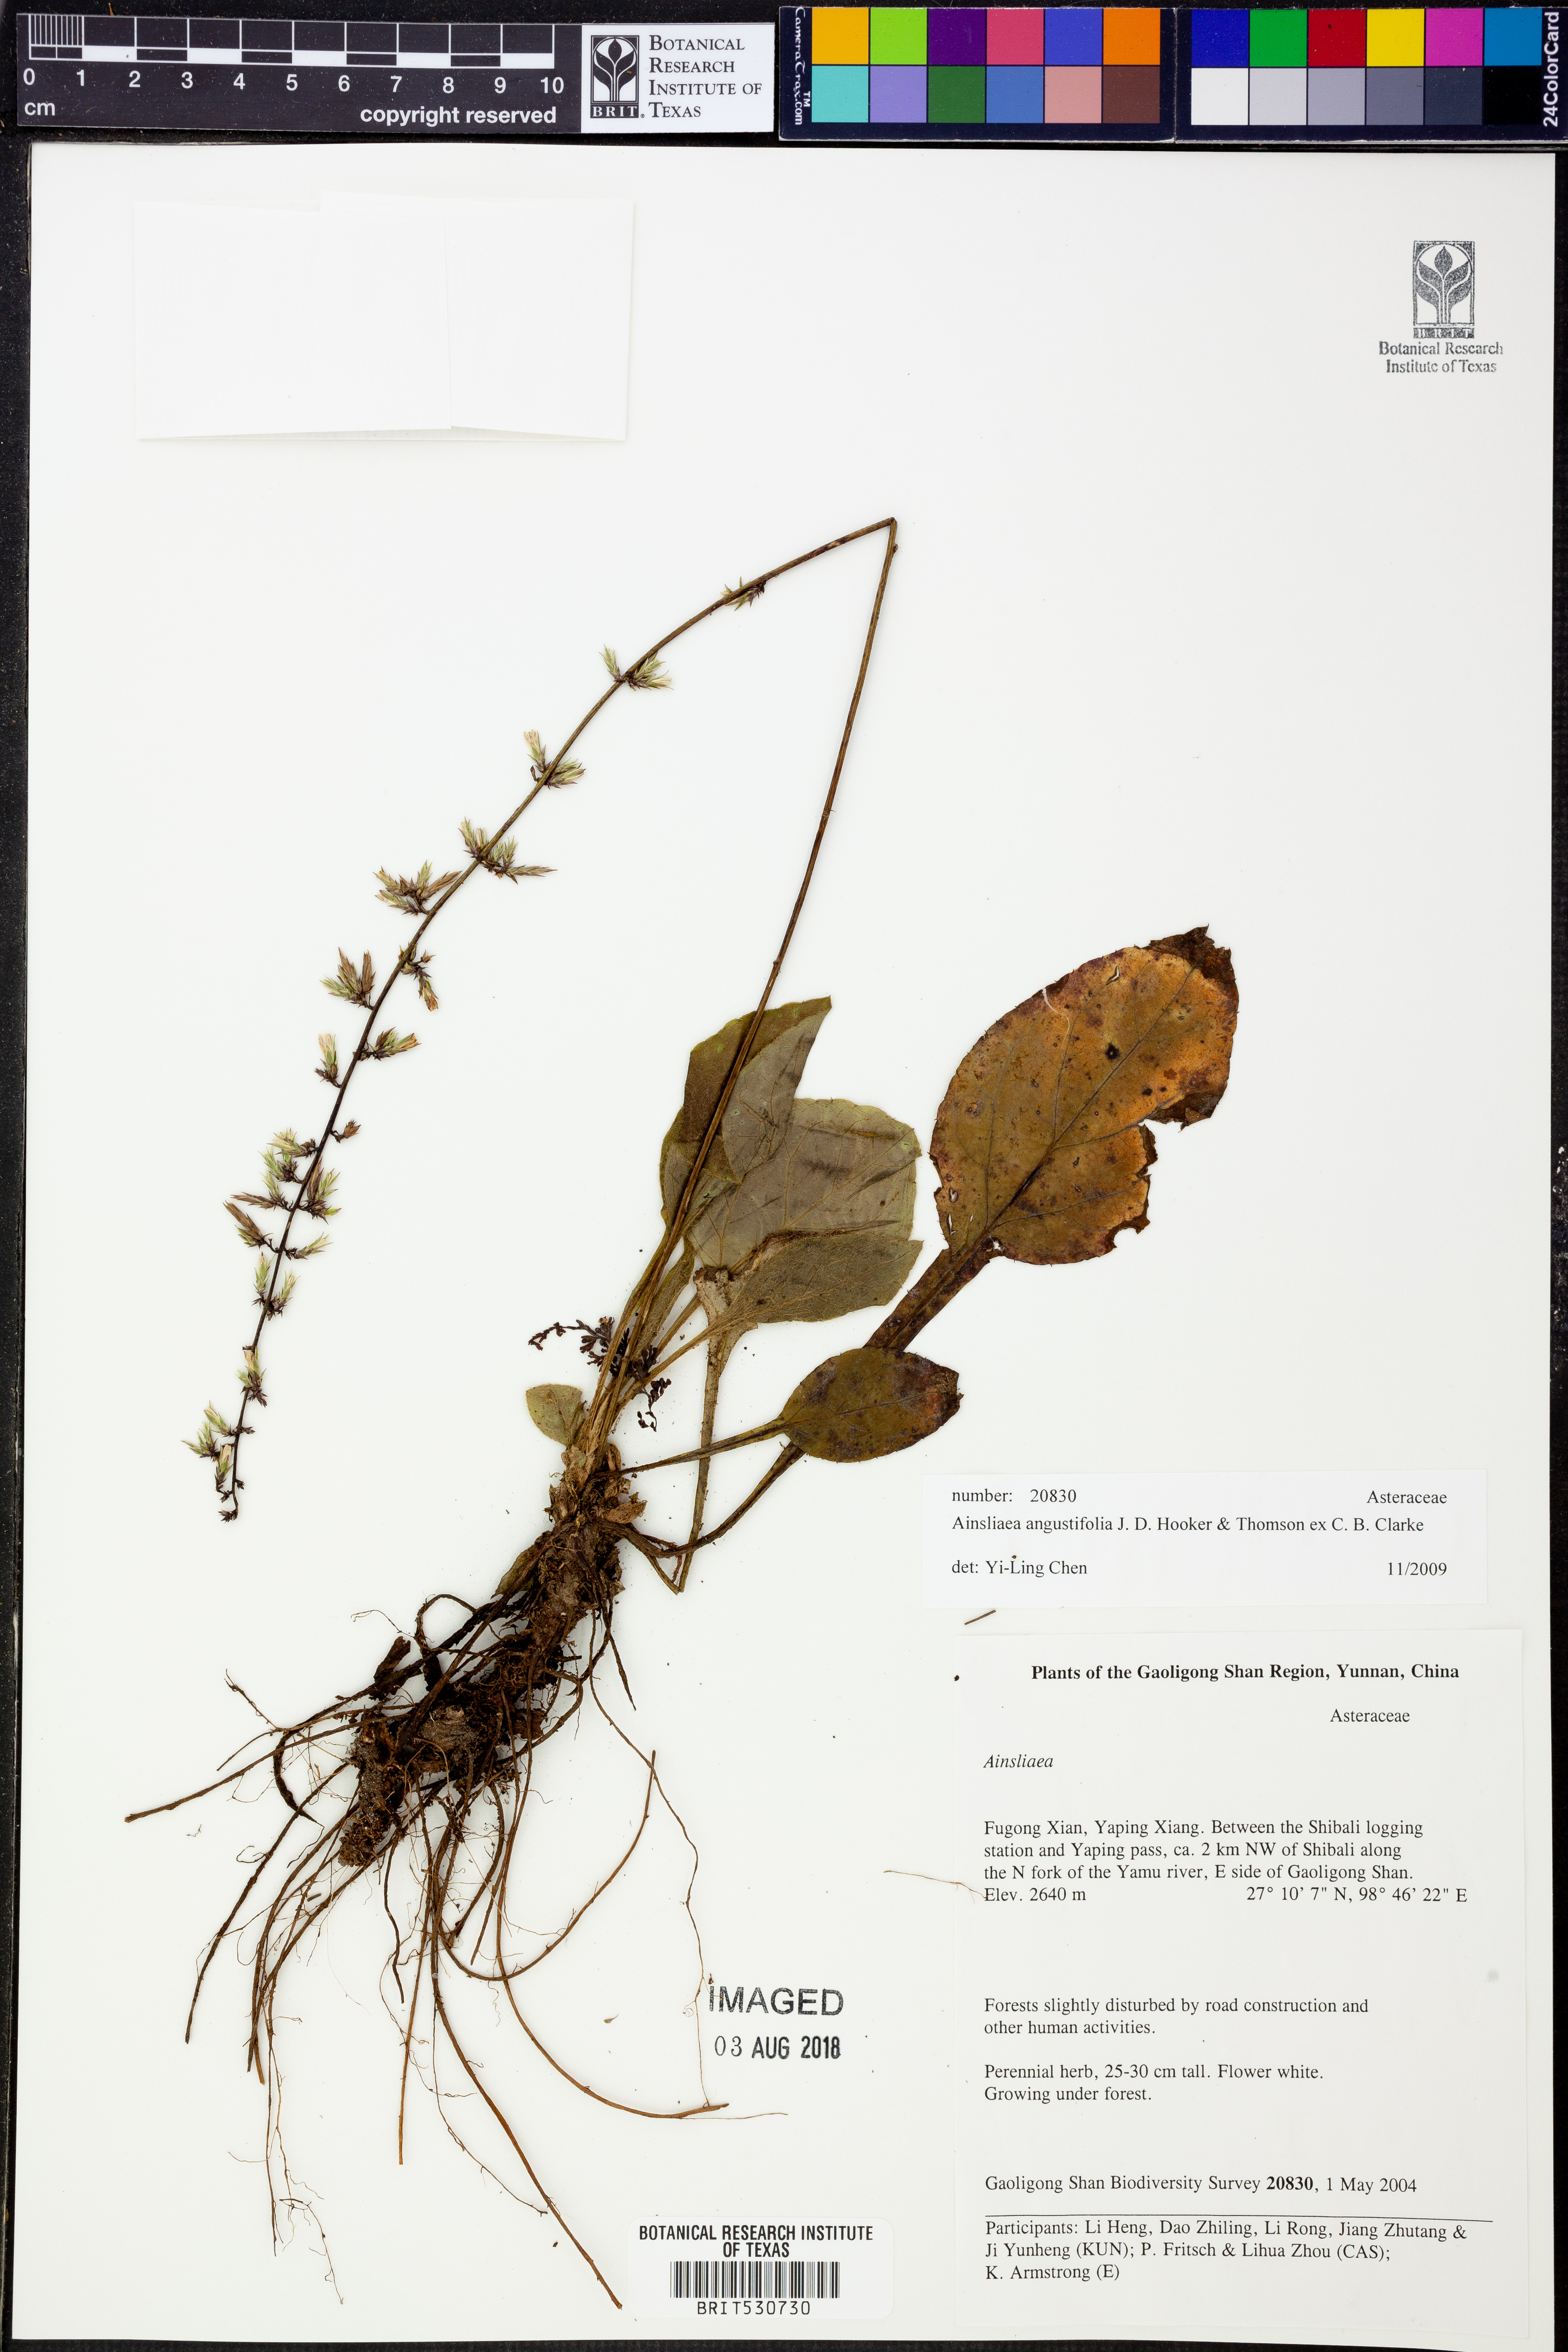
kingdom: Plantae
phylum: Tracheophyta
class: Magnoliopsida
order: Asterales
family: Asteraceae
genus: Ainsliaea
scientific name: Ainsliaea angustifolia
